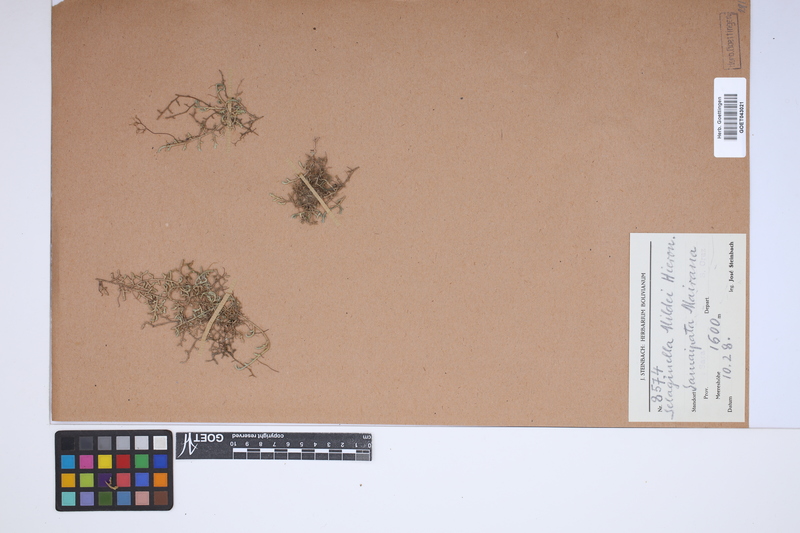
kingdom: Plantae
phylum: Tracheophyta
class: Lycopodiopsida
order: Selaginellales
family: Selaginellaceae
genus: Selaginella
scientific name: Selaginella sellowii
